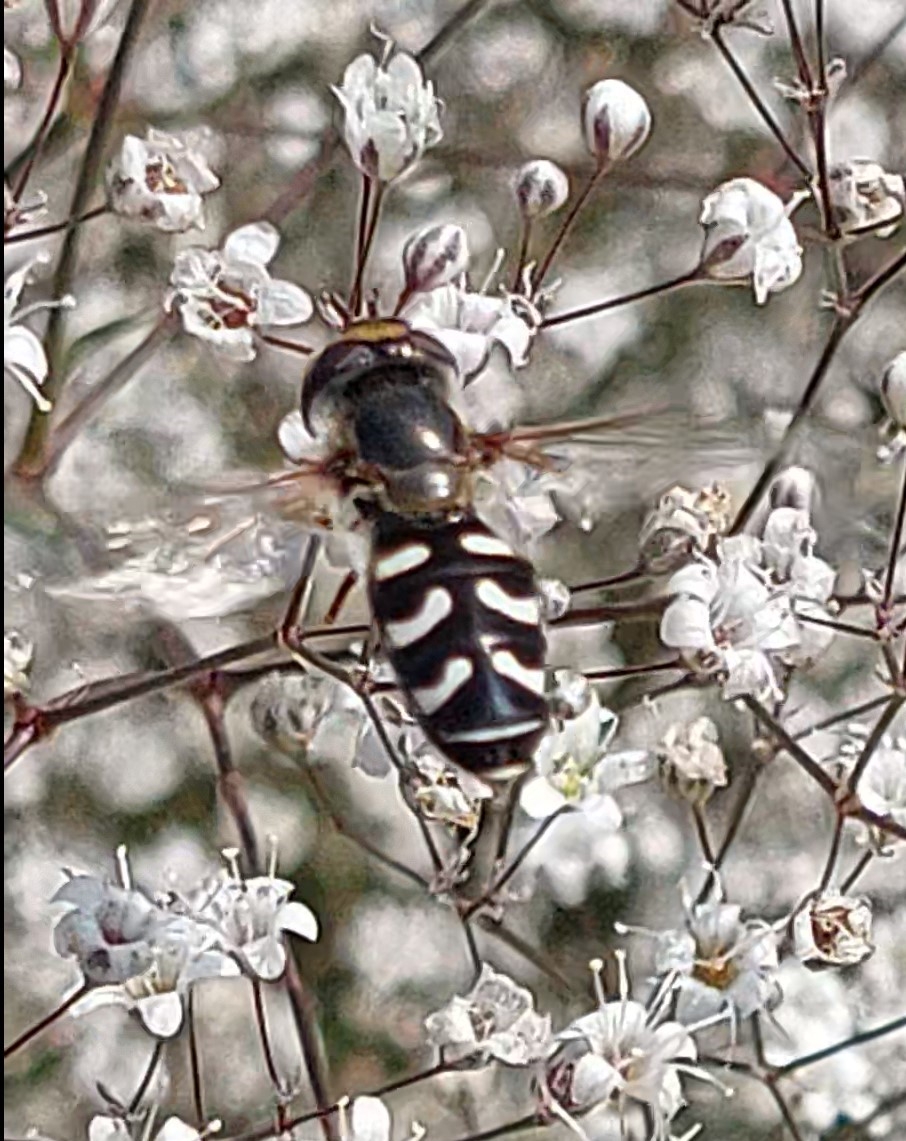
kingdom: Animalia
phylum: Arthropoda
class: Insecta
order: Diptera
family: Syrphidae
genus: Scaeva
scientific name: Scaeva pyrastri
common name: Hvidplettet agersvirreflue
